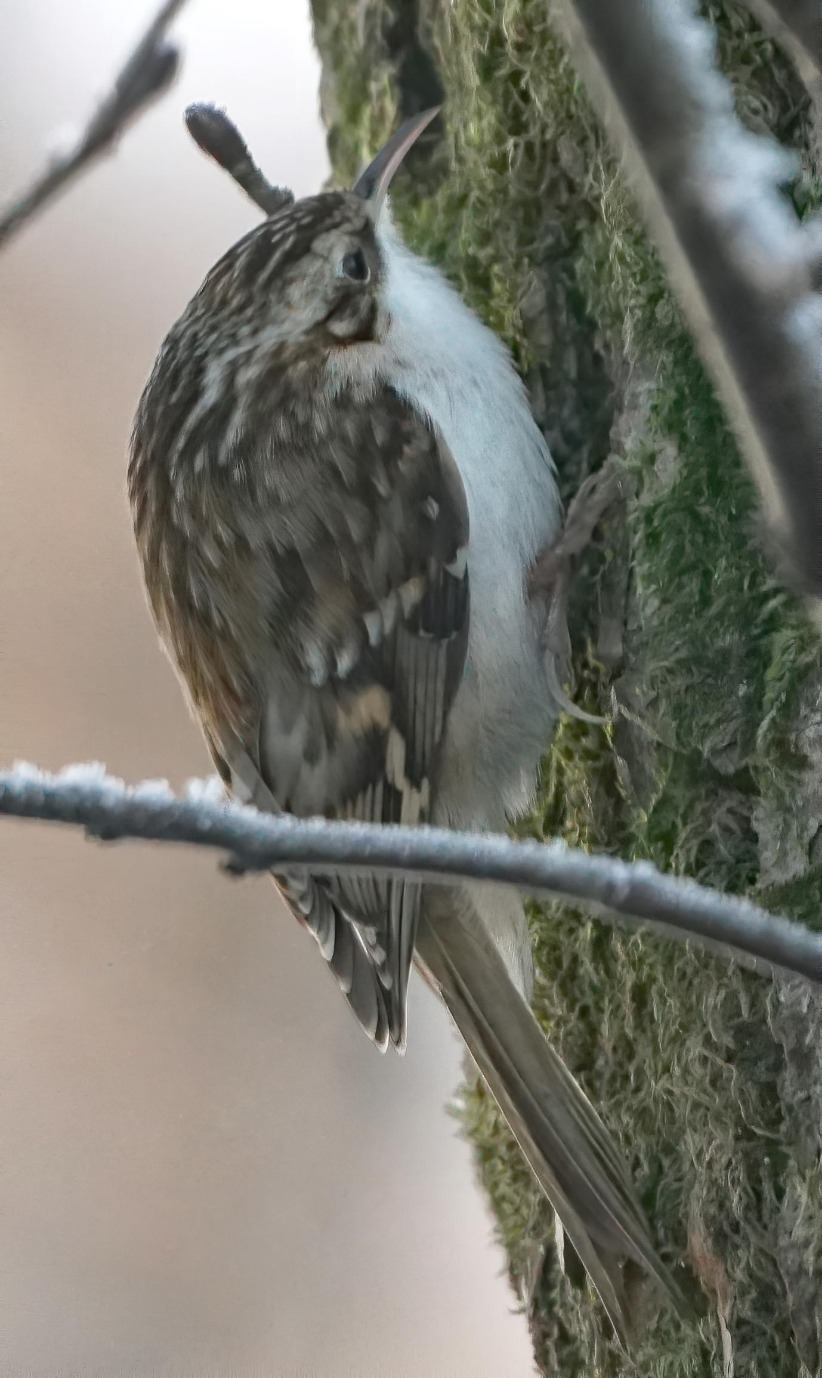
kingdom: Animalia
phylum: Chordata
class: Aves
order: Passeriformes
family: Certhiidae
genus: Certhia
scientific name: Certhia familiaris
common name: Træløber
